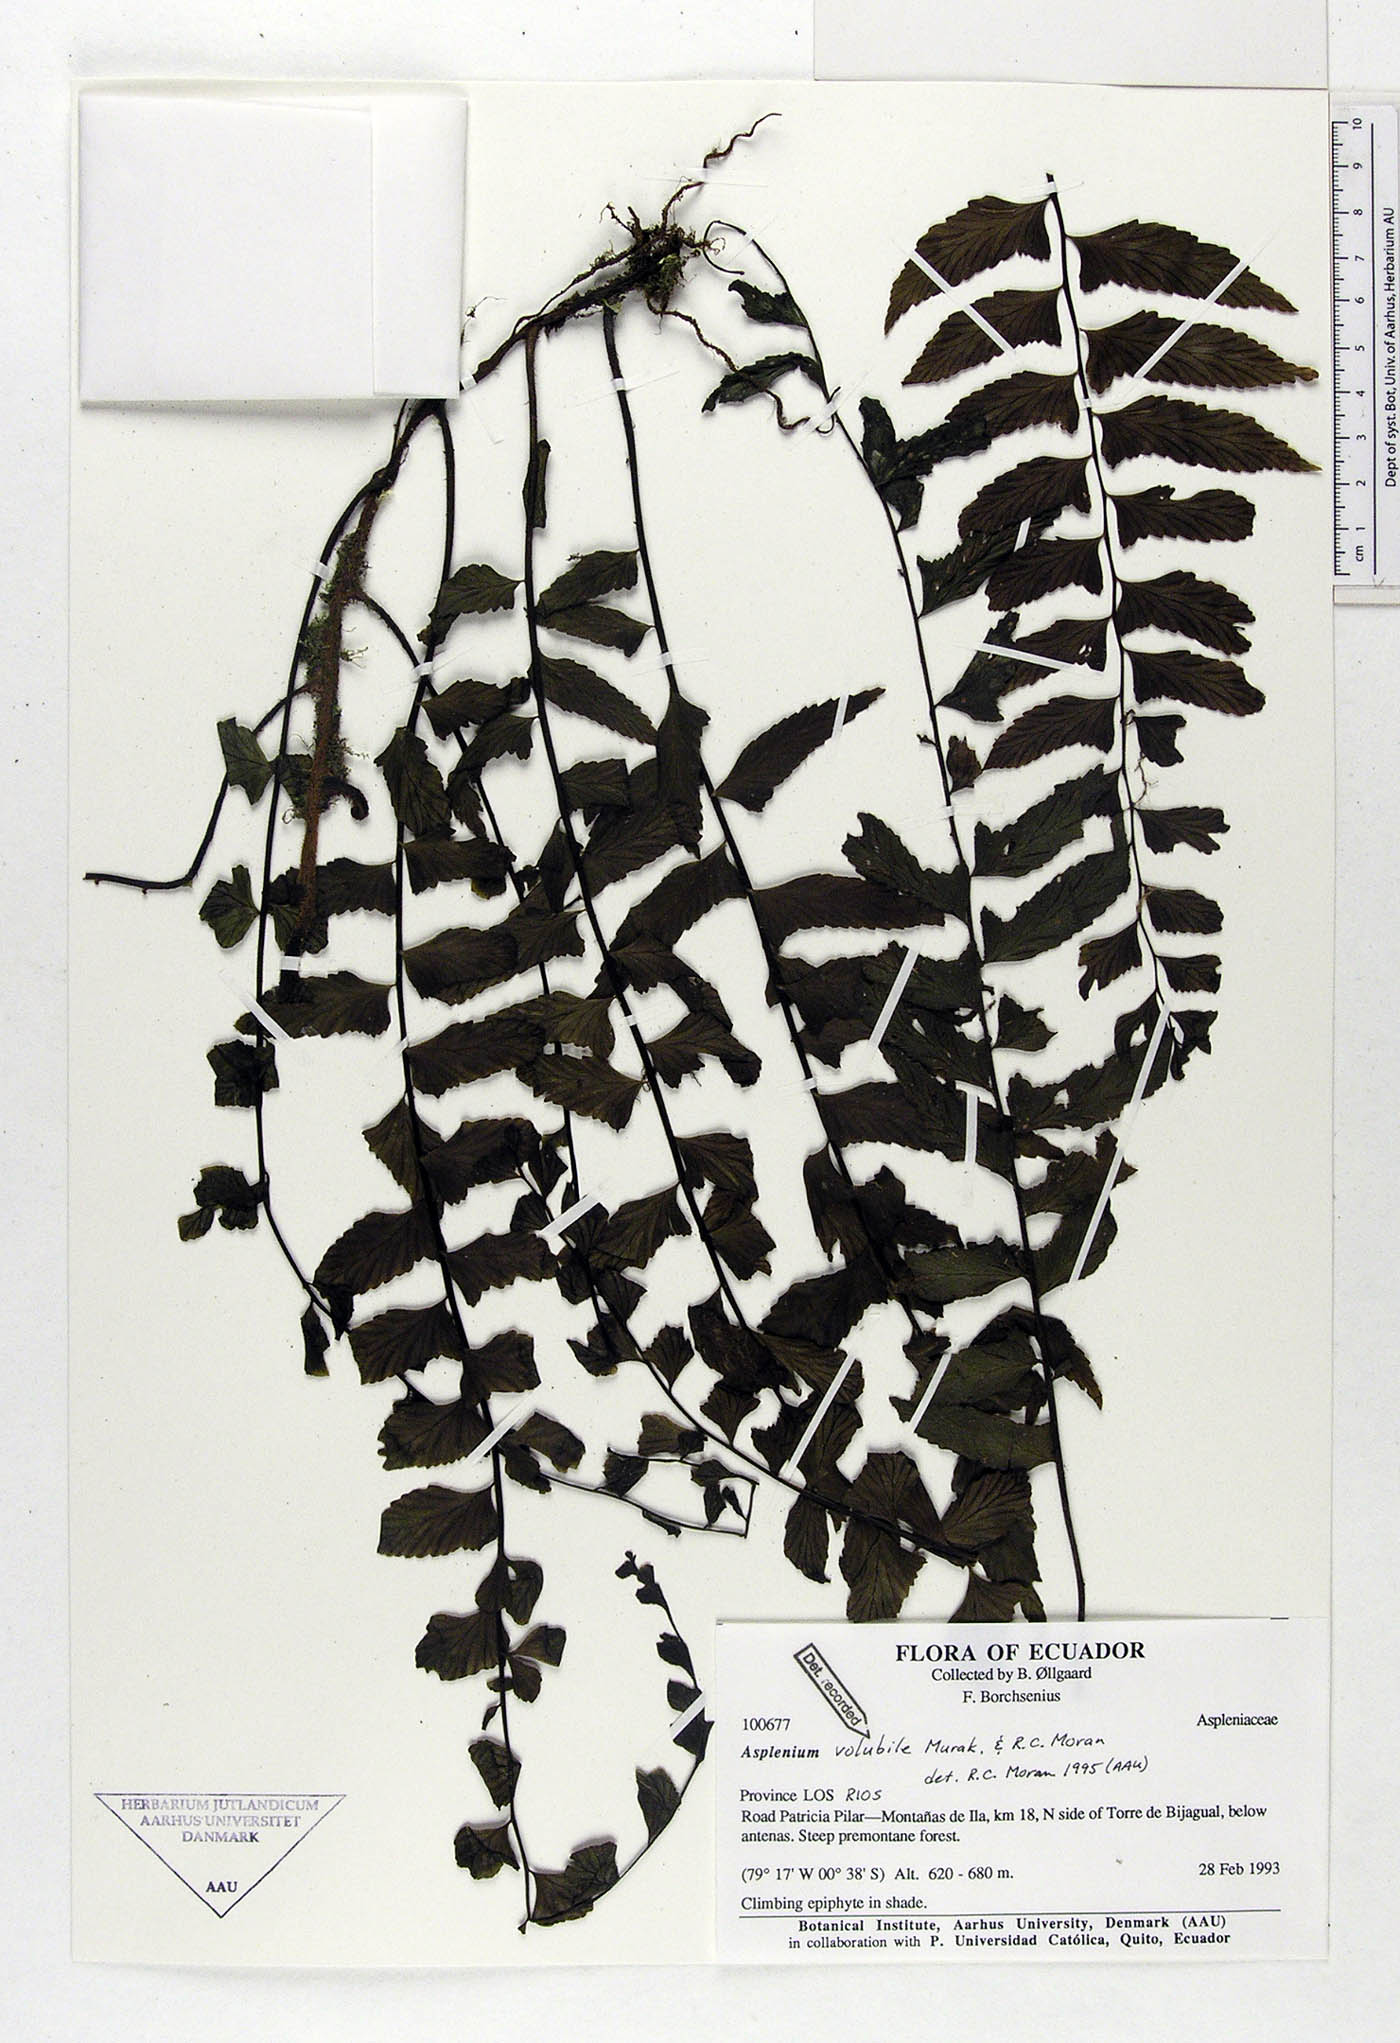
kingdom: Plantae
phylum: Tracheophyta
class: Polypodiopsida
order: Polypodiales
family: Aspleniaceae
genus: Hymenasplenium
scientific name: Hymenasplenium volubile
